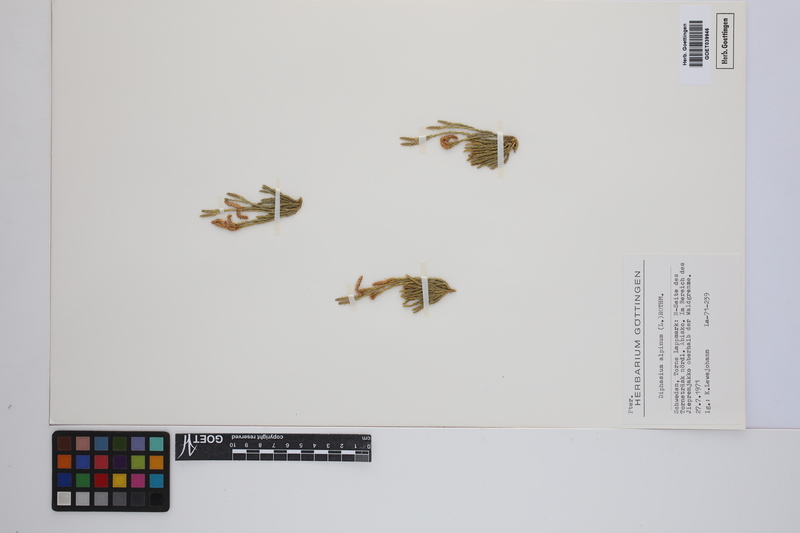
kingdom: Plantae
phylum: Tracheophyta
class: Lycopodiopsida
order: Lycopodiales
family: Lycopodiaceae
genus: Diphasiastrum
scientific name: Diphasiastrum alpinum
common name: Alpine clubmoss
